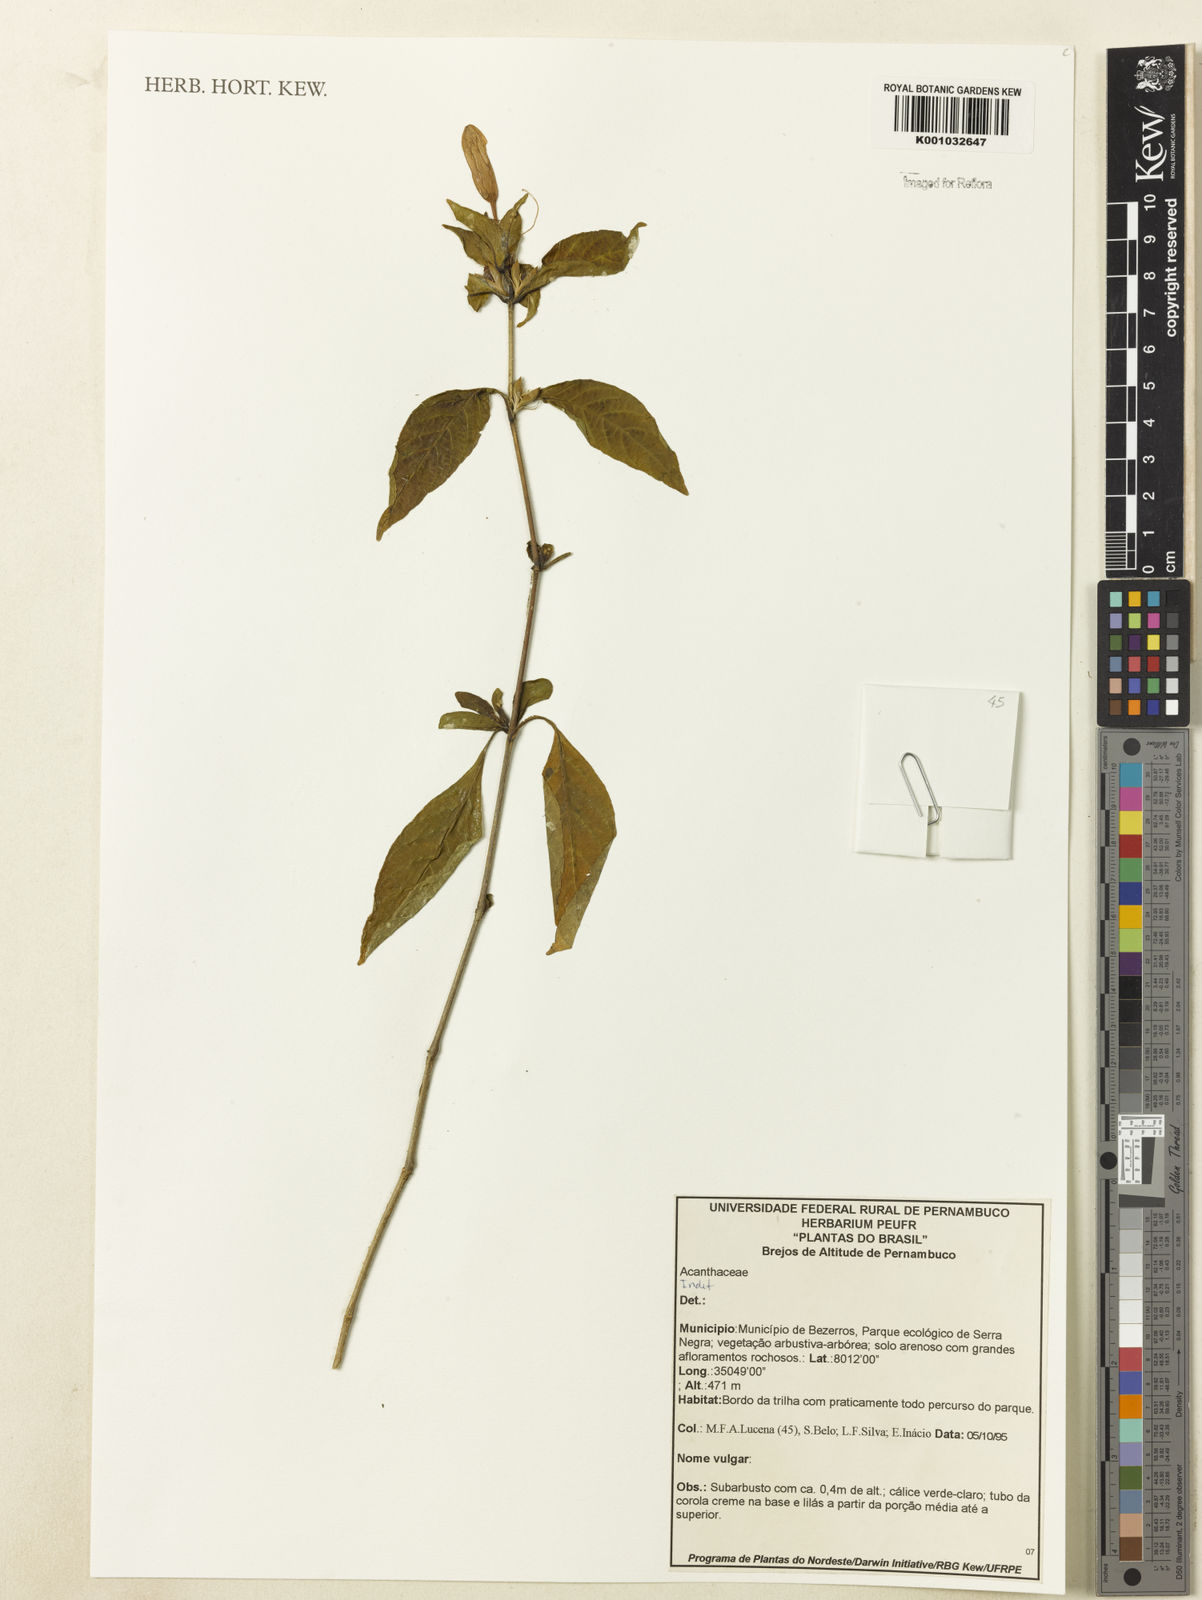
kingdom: Plantae
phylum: Tracheophyta
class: Magnoliopsida
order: Lamiales
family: Acanthaceae
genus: Ruellia
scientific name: Ruellia
